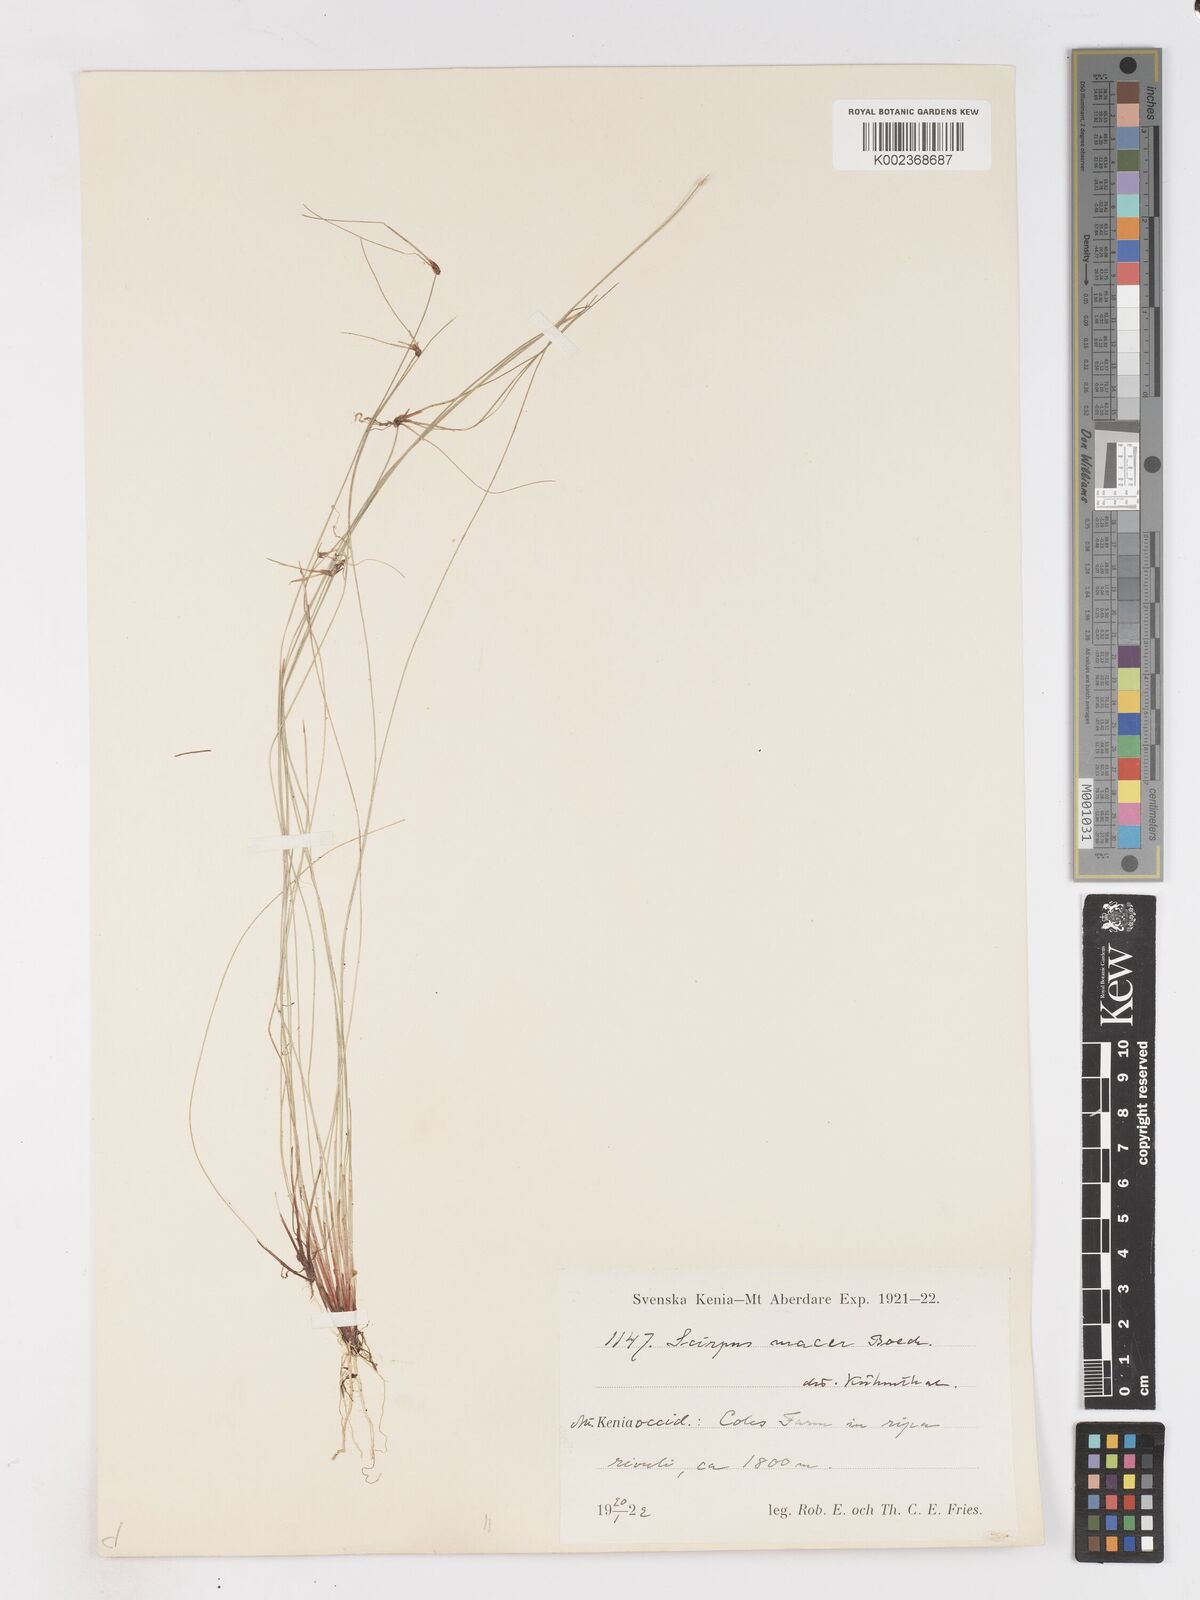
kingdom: Plantae
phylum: Tracheophyta
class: Liliopsida
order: Poales
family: Cyperaceae
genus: Isolepis
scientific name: Isolepis costata
